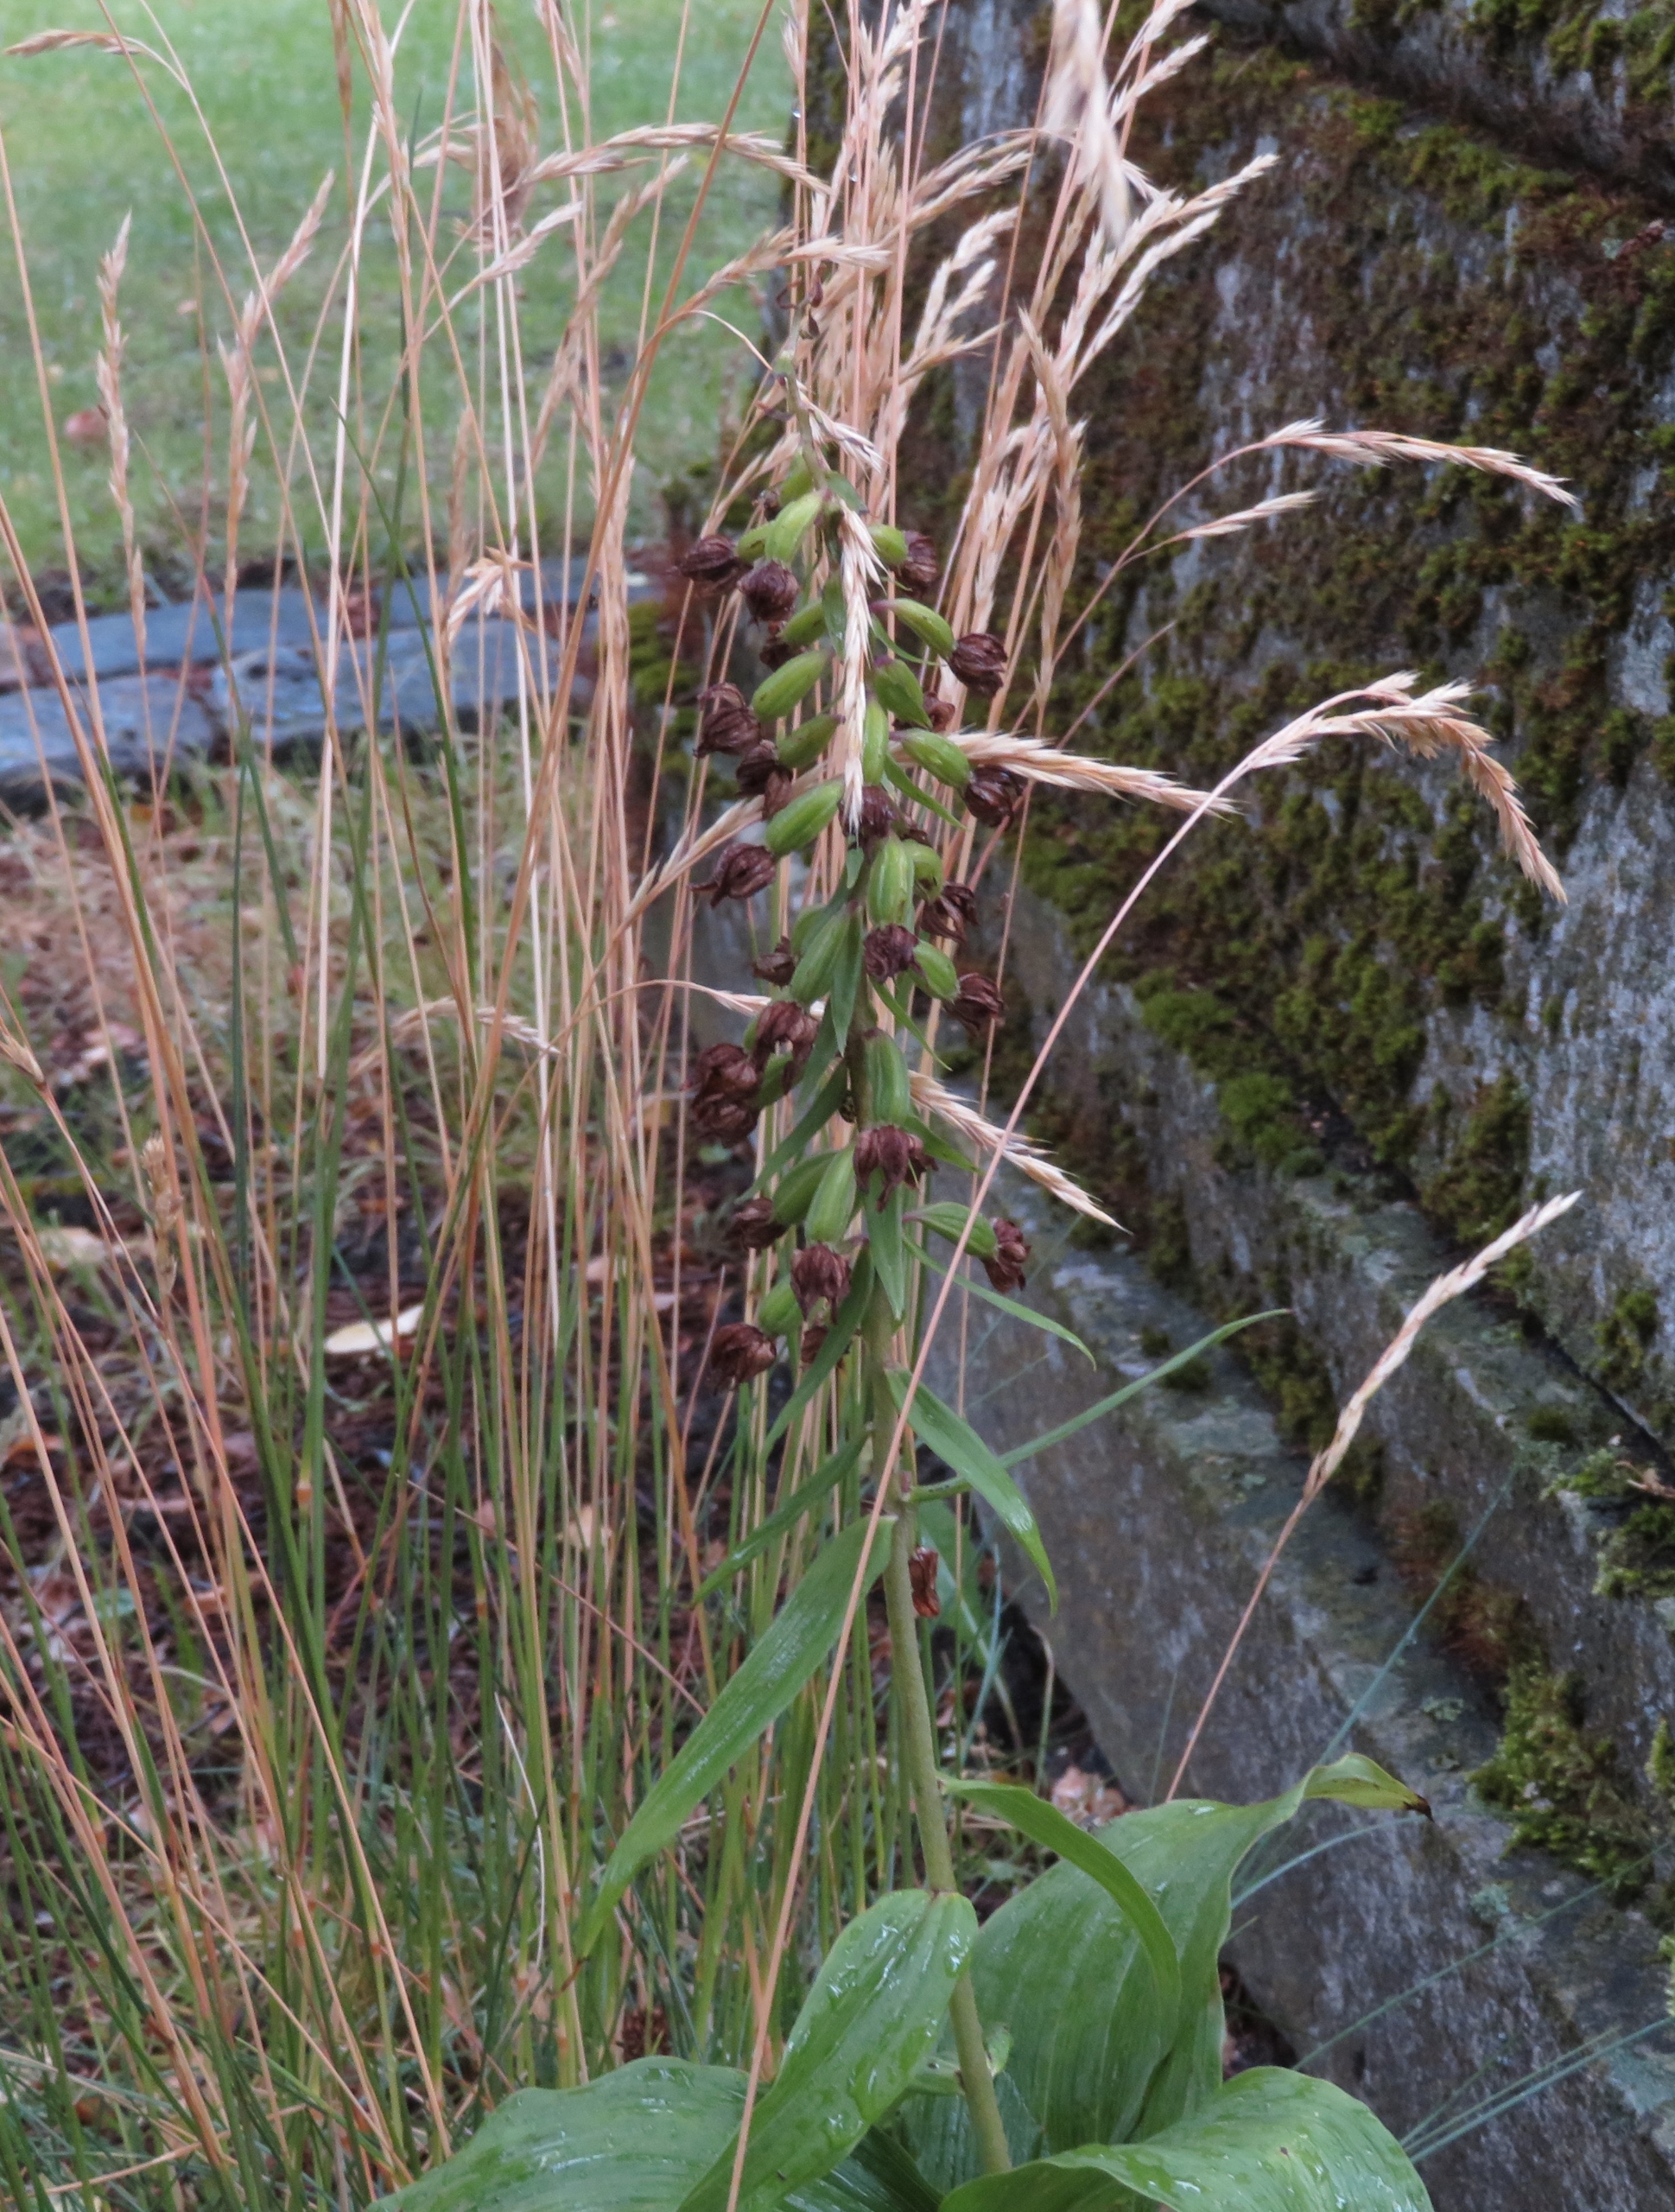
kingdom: Plantae
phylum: Tracheophyta
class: Liliopsida
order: Asparagales
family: Orchidaceae
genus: Epipactis
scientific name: Epipactis helleborine
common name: Skov-hullæbe
